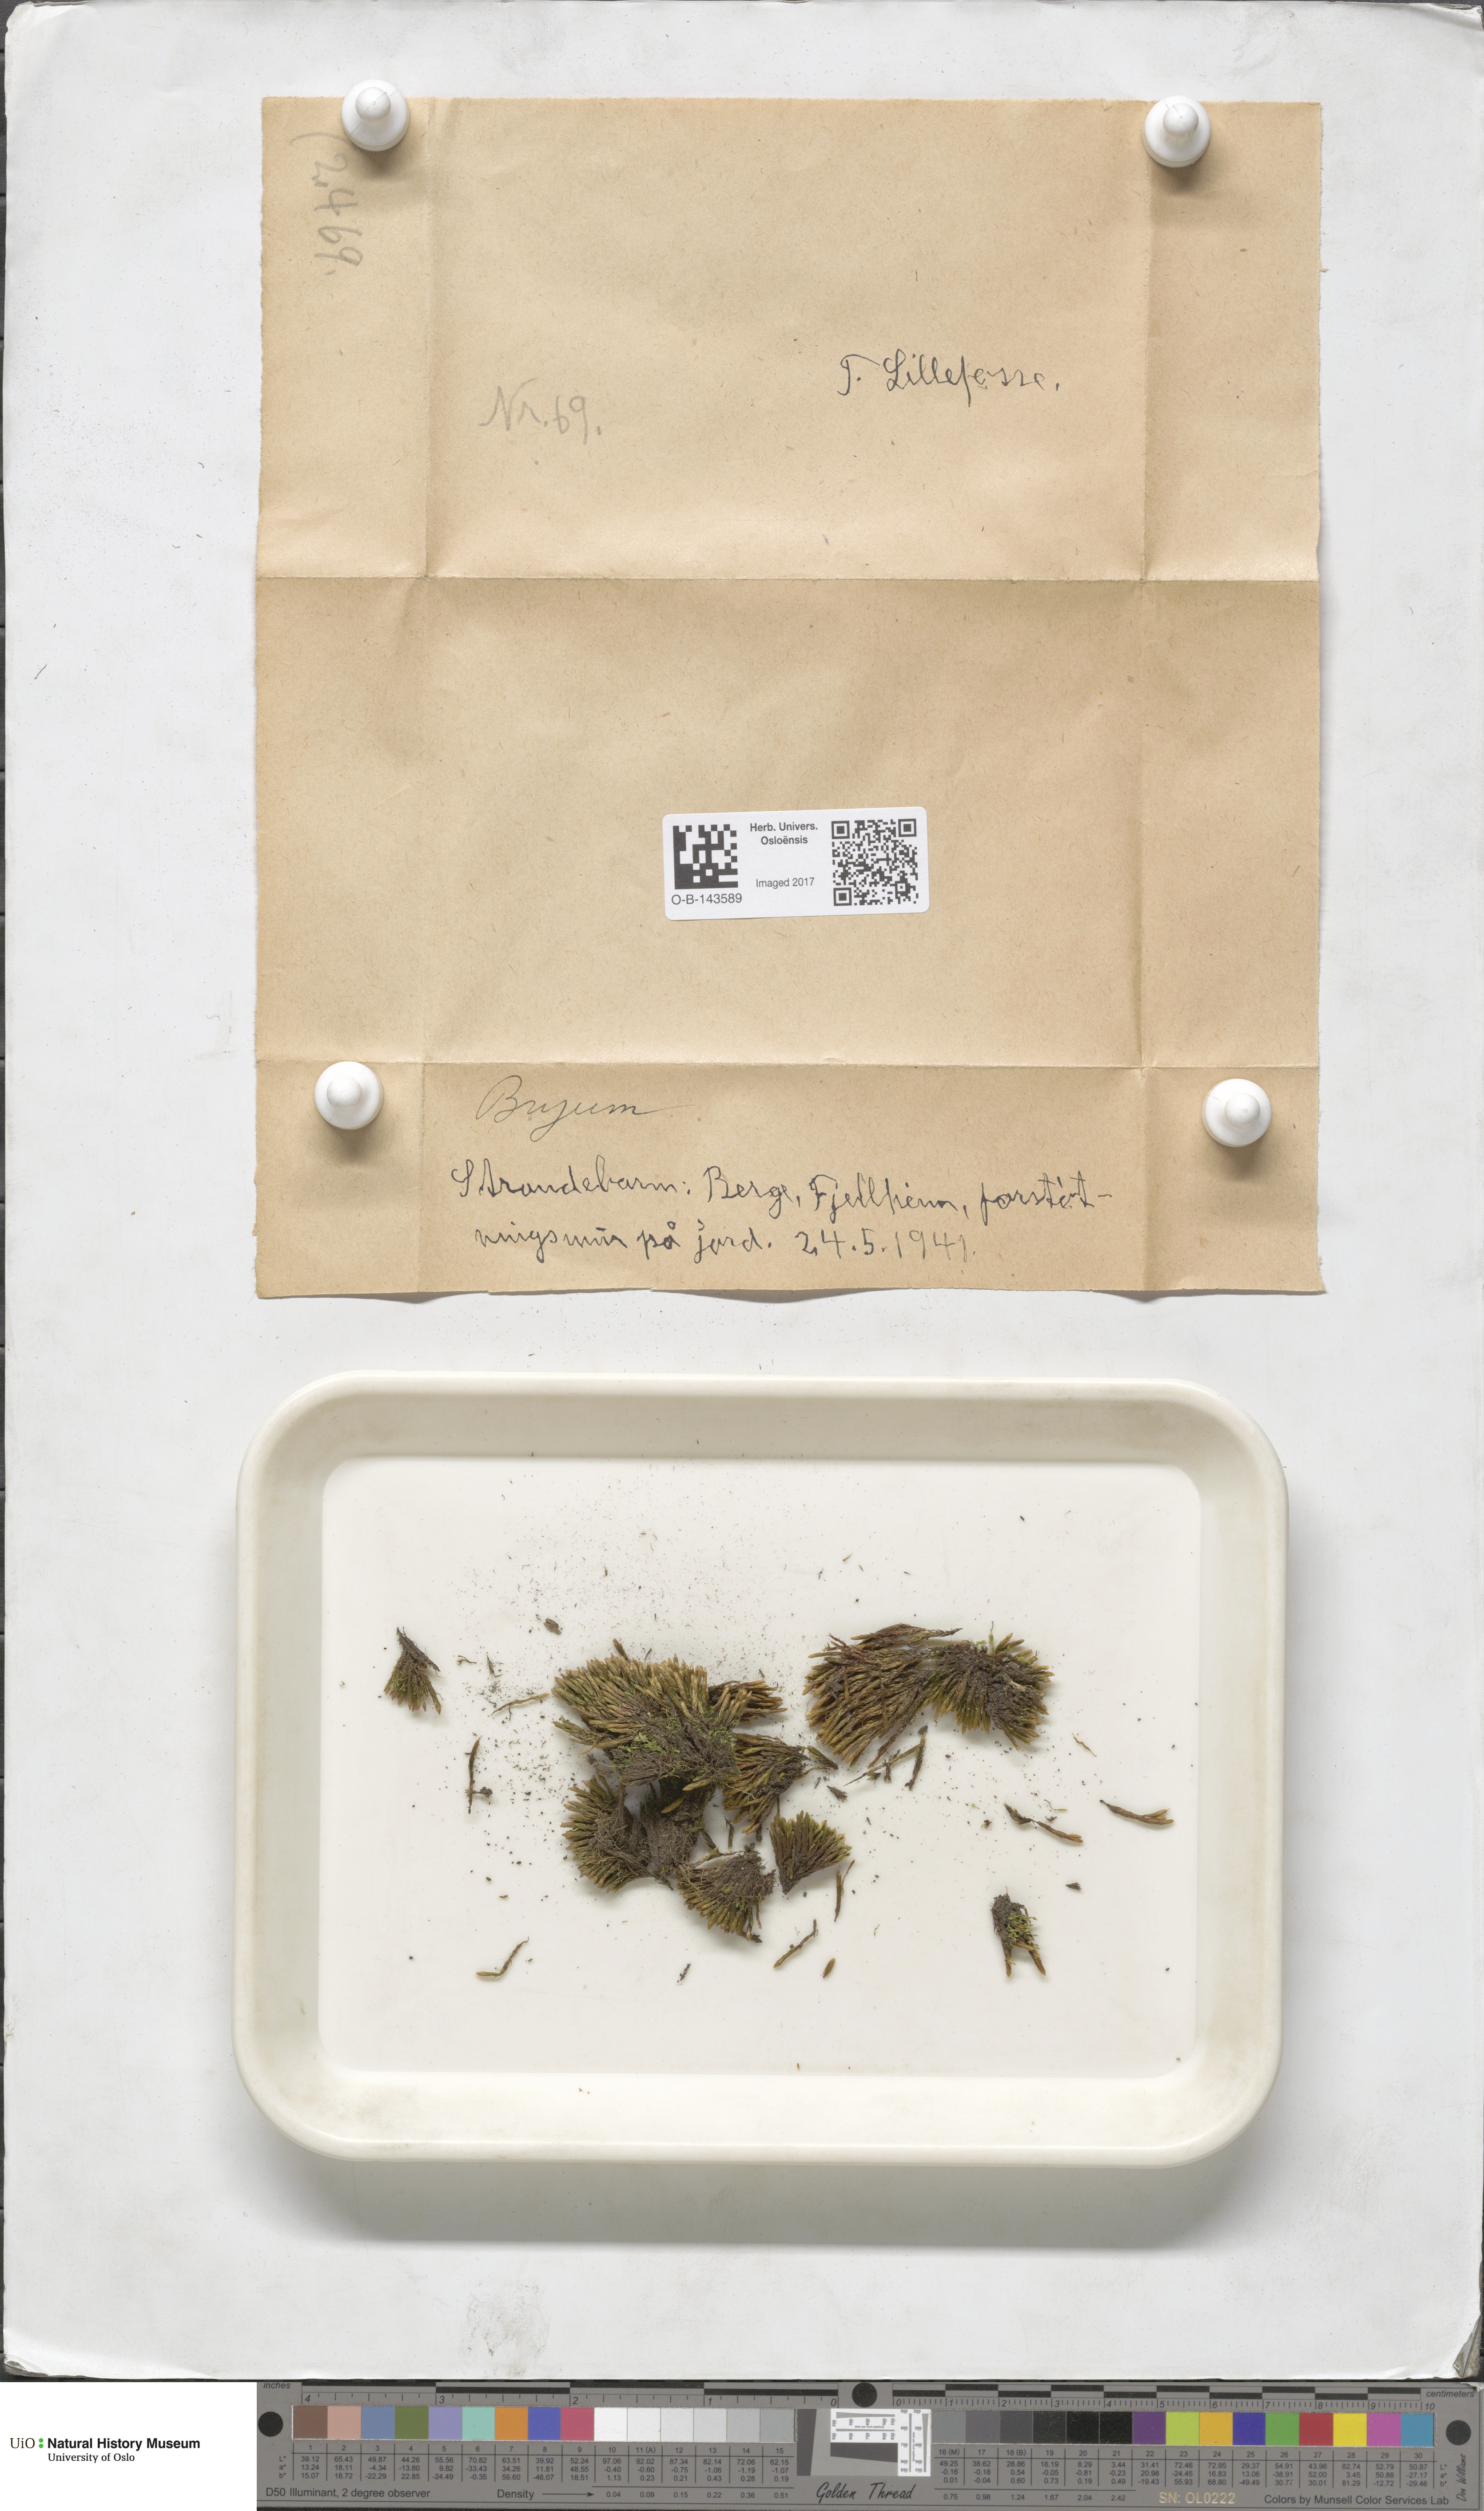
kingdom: Plantae
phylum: Bryophyta
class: Bryopsida
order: Bryales
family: Bryaceae
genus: Bryum
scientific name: Bryum
